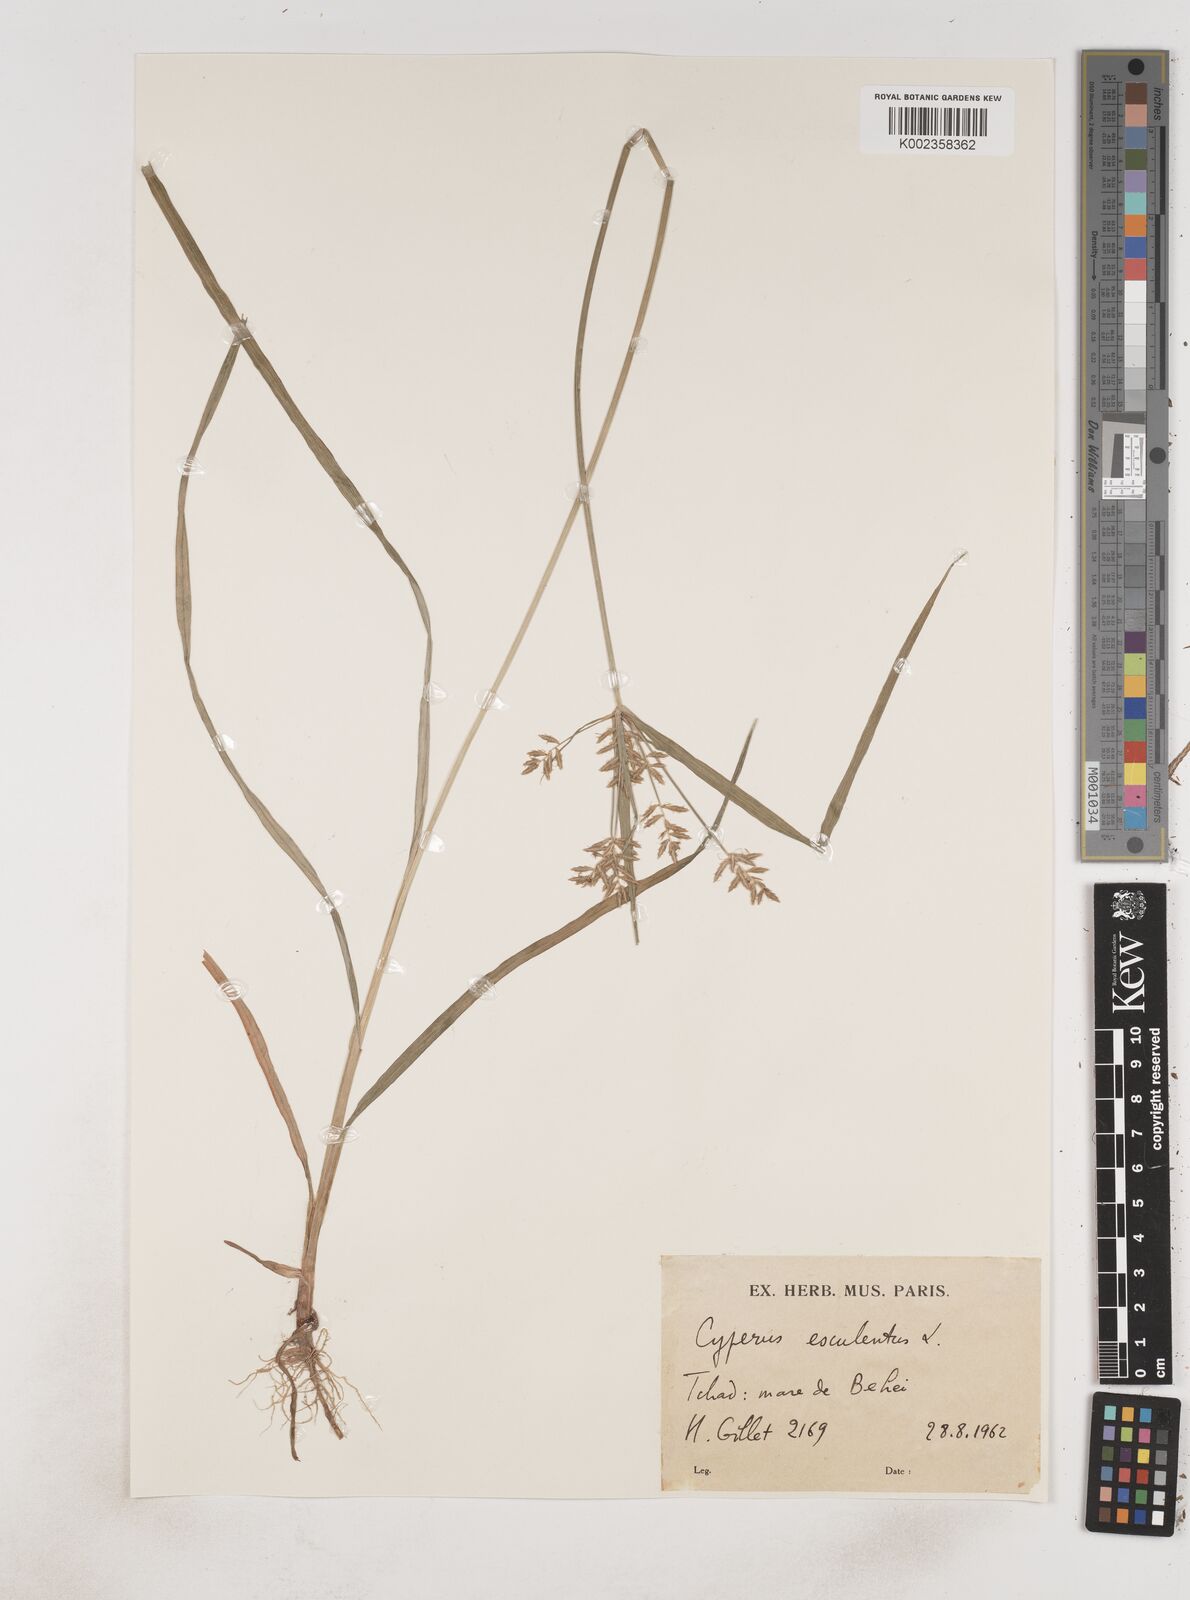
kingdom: Plantae
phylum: Tracheophyta
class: Liliopsida
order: Poales
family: Cyperaceae
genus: Cyperus
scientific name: Cyperus esculentus
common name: Yellow nutsedge
